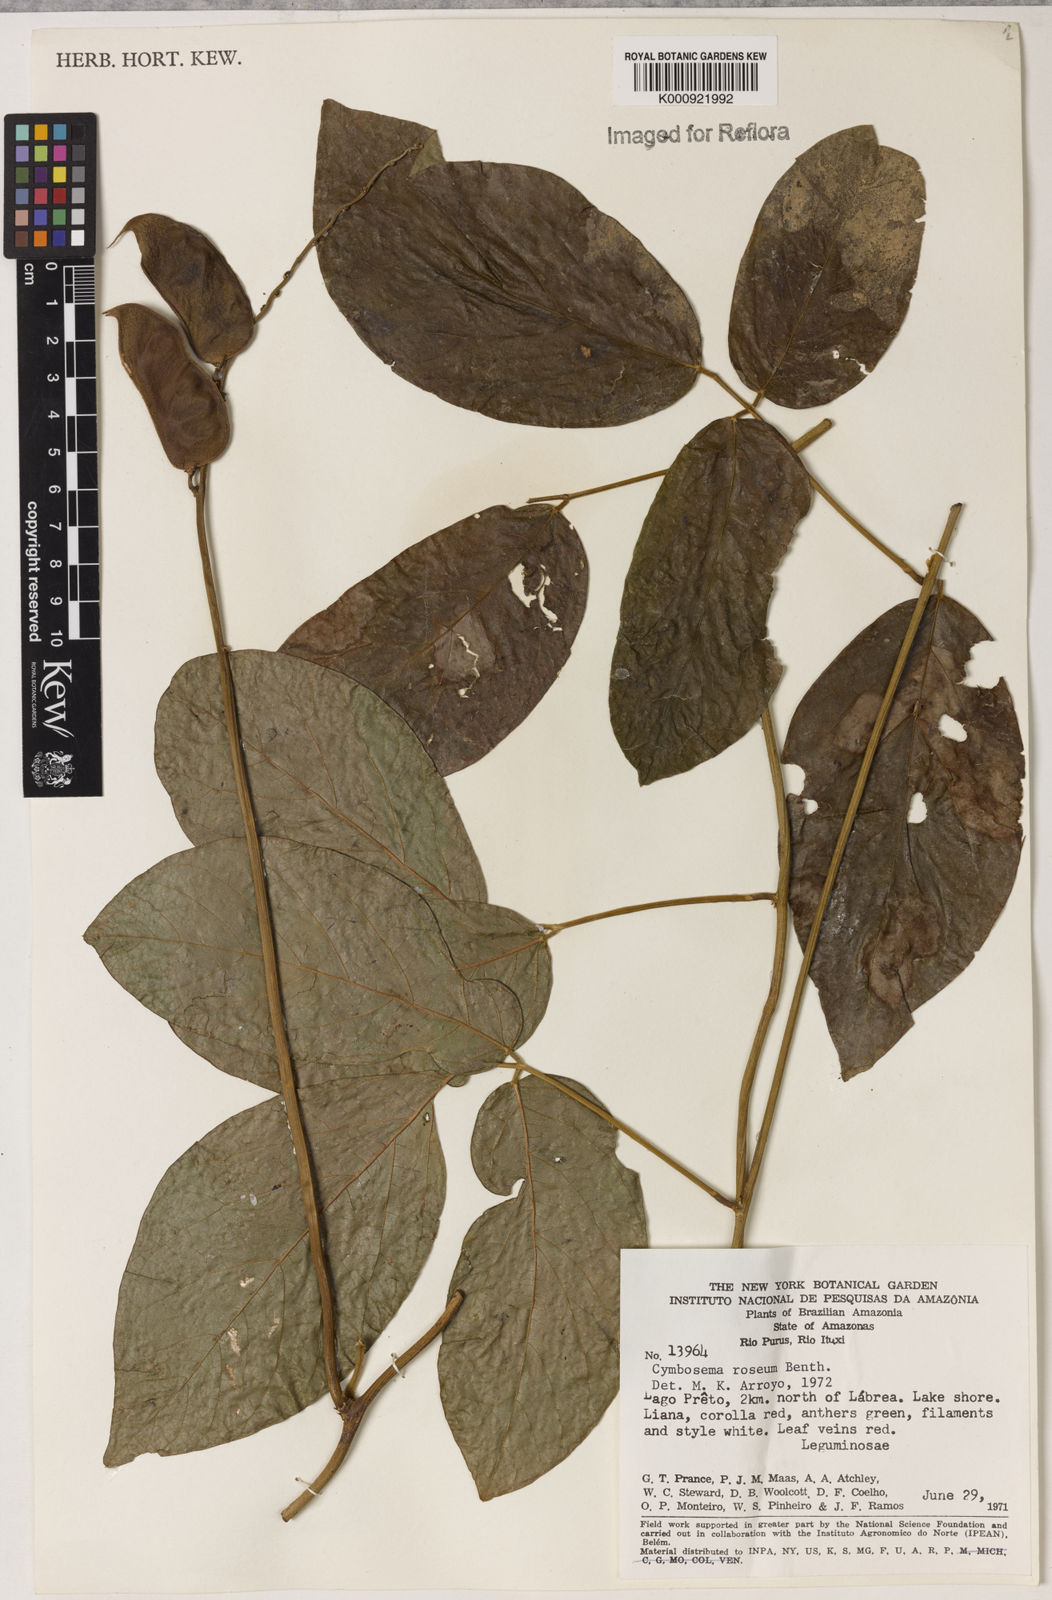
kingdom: Plantae
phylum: Tracheophyta
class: Magnoliopsida
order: Fabales
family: Fabaceae
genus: Cymbosema
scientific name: Cymbosema roseum
